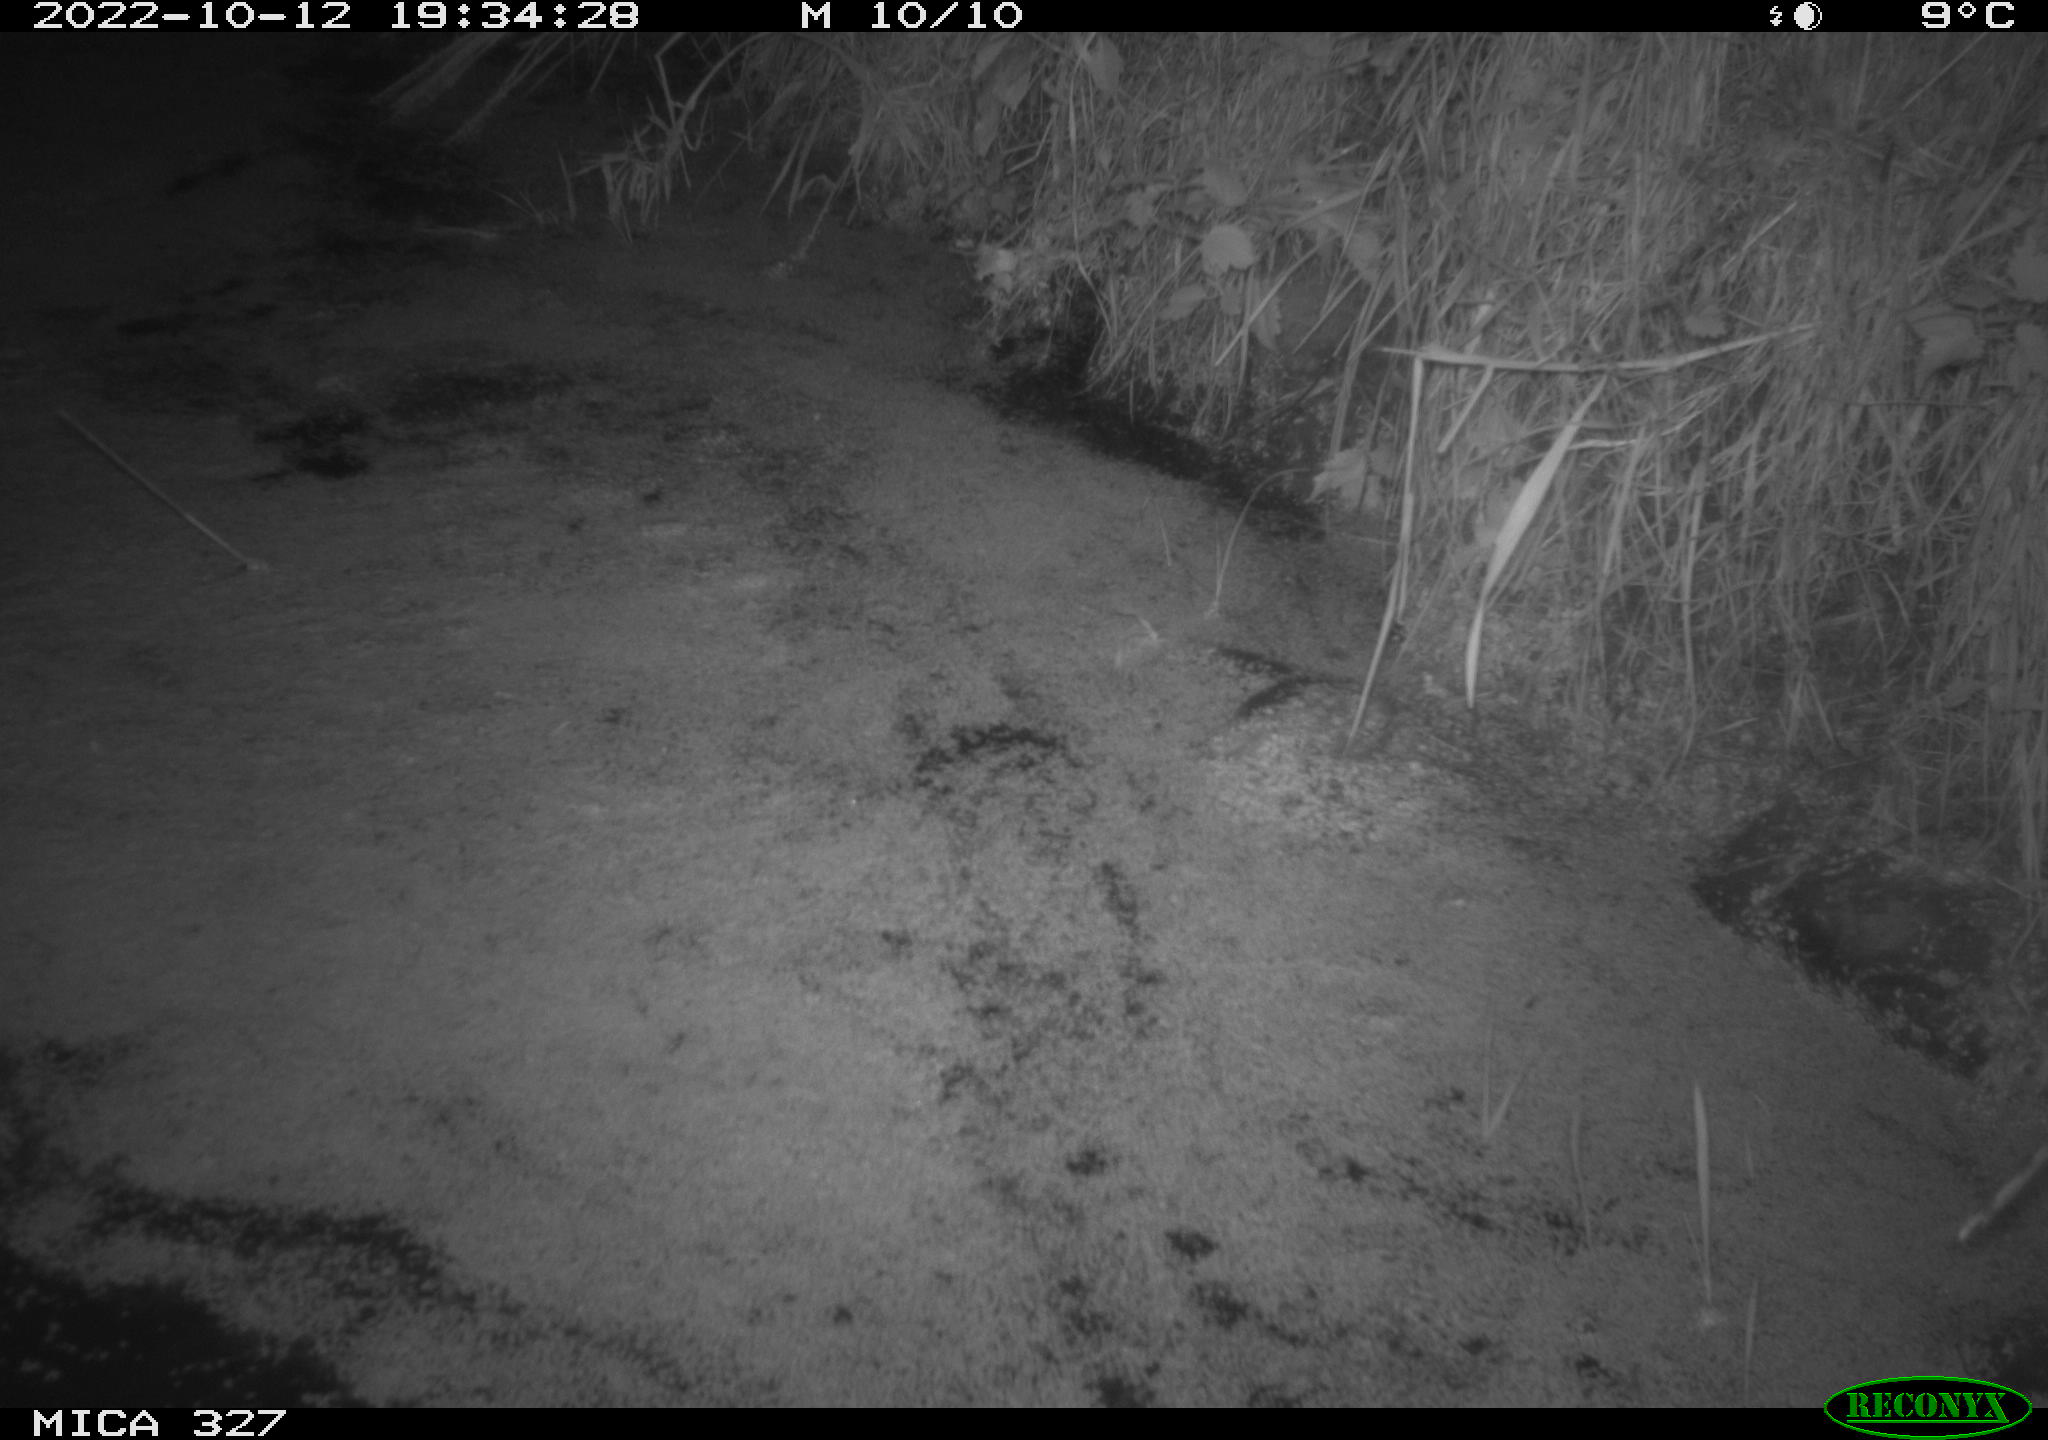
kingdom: Animalia
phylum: Chordata
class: Mammalia
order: Rodentia
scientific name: Rodentia
